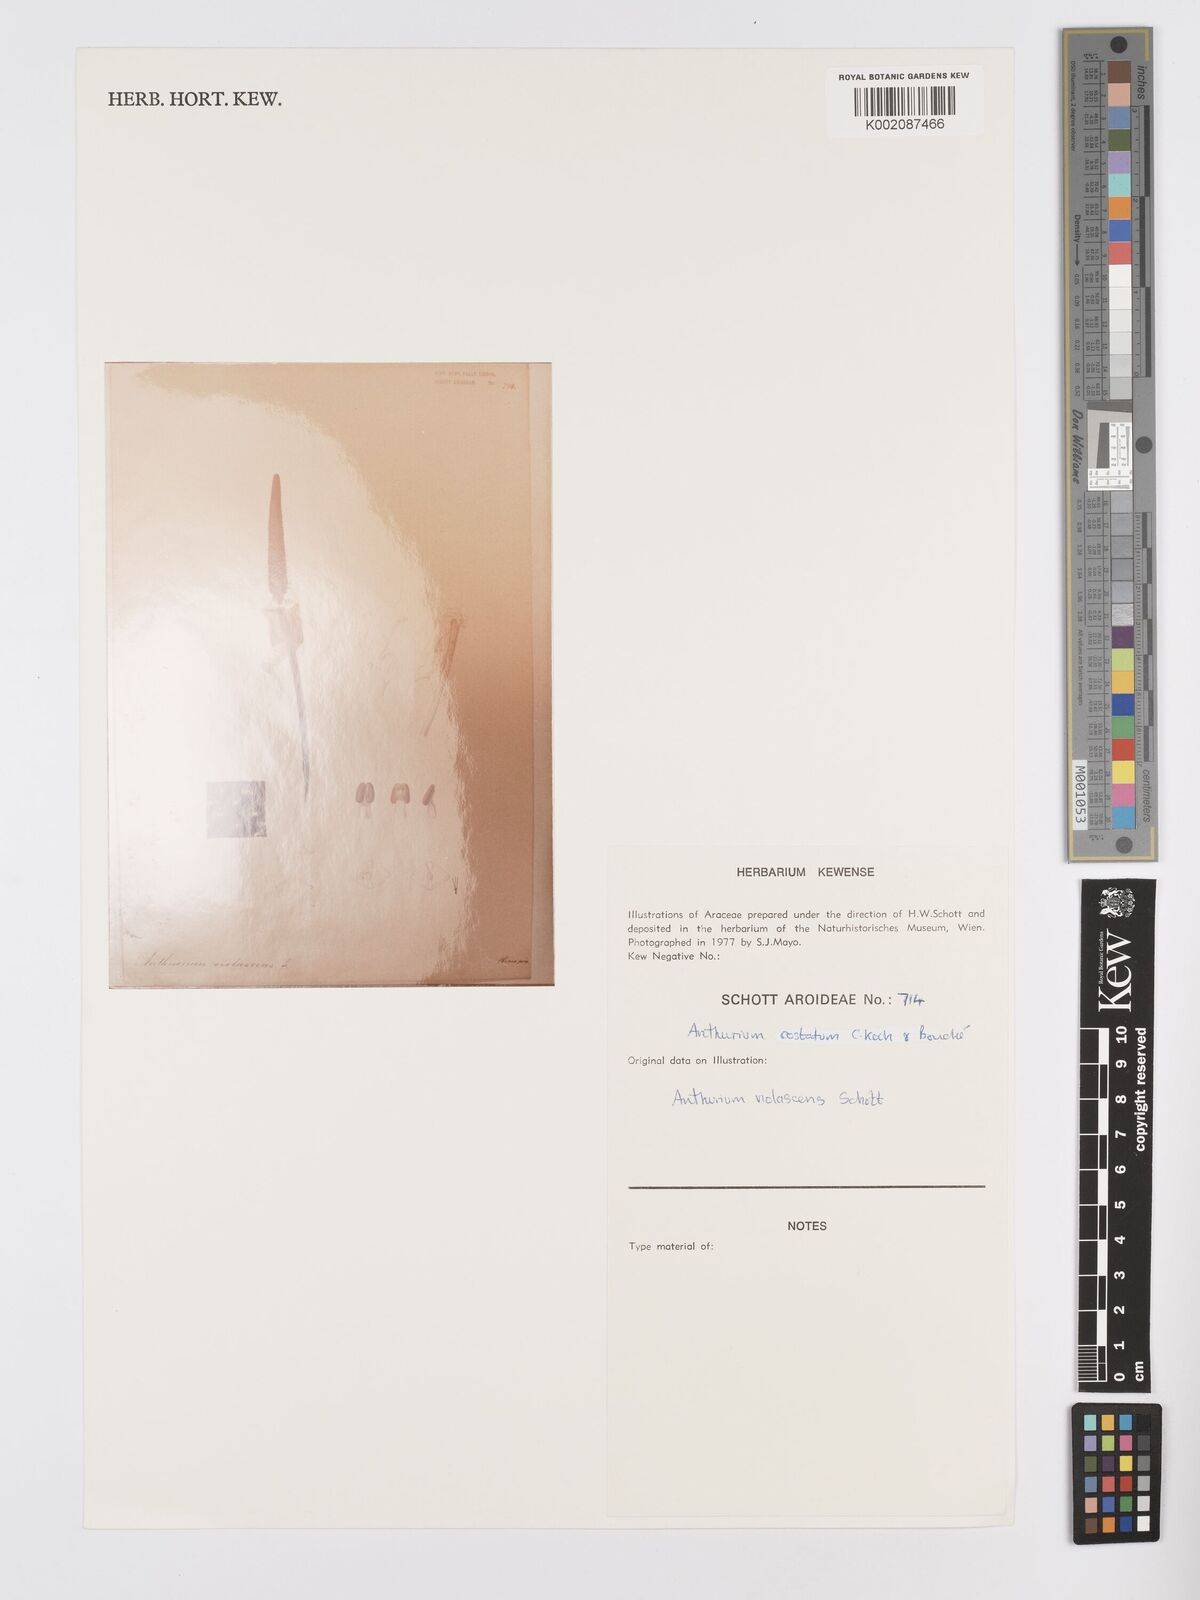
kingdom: Plantae
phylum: Tracheophyta
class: Liliopsida
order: Alismatales
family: Araceae
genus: Anthurium
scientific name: Anthurium macrophyllum
